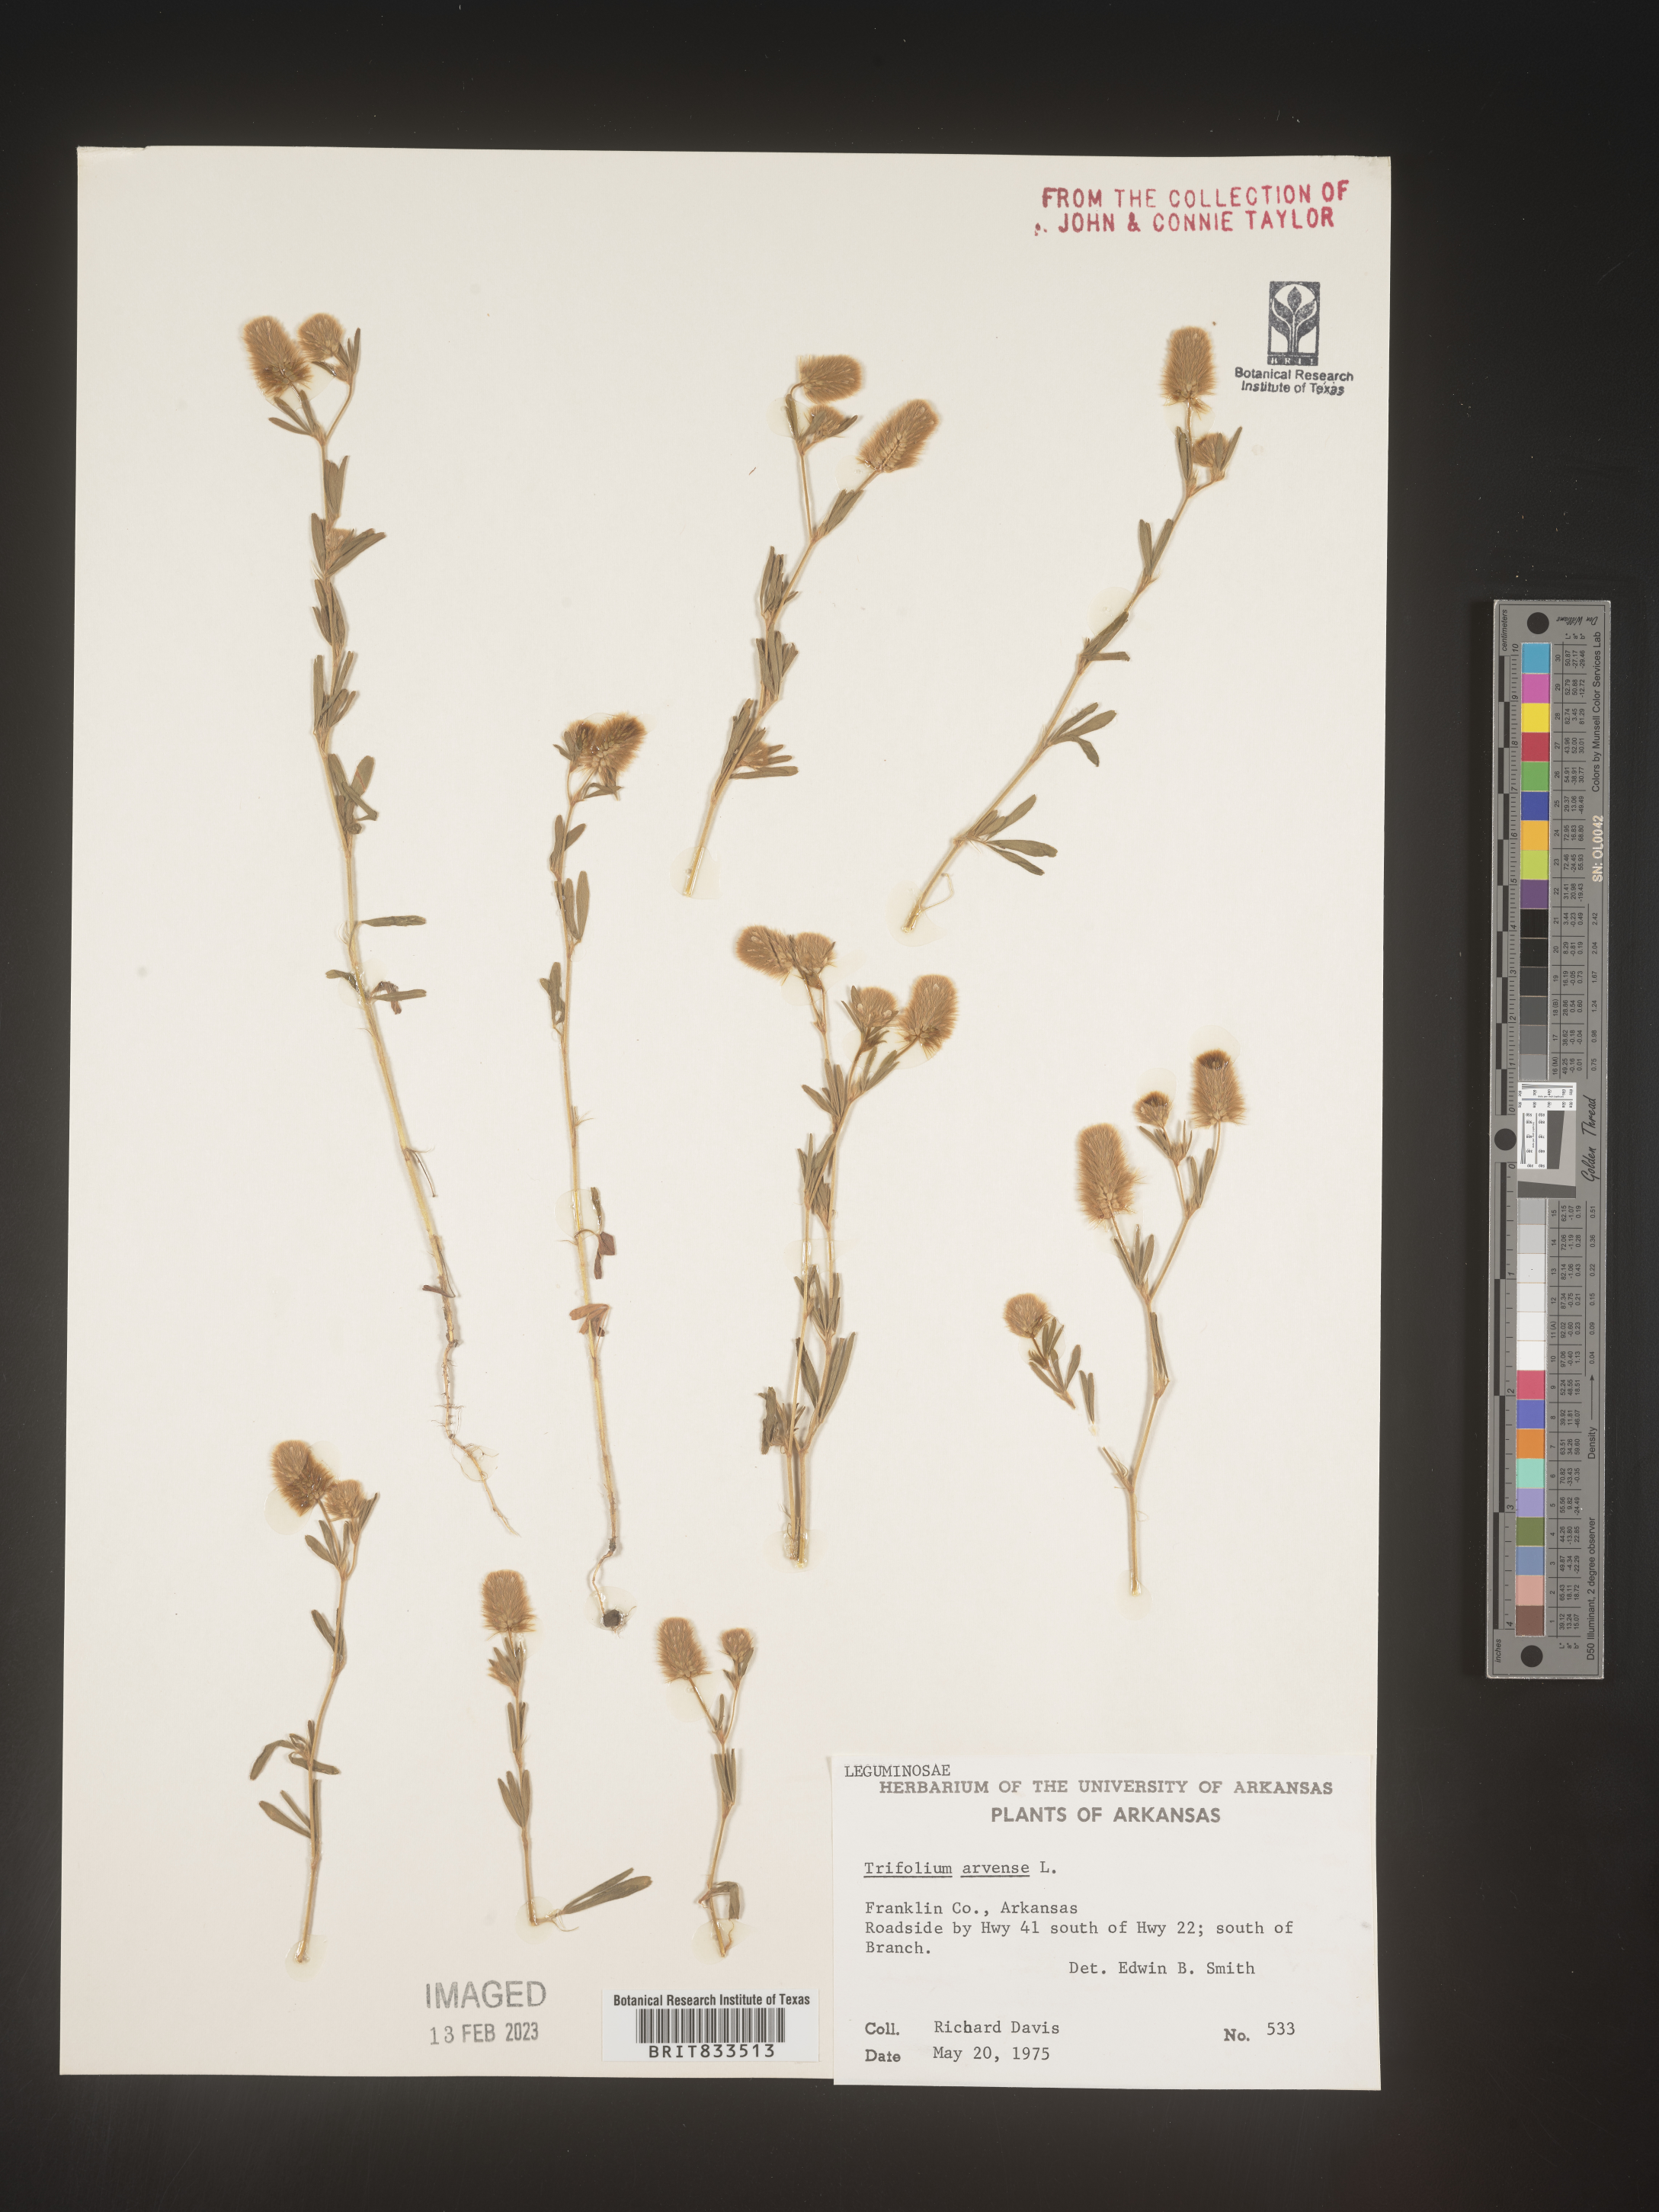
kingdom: Plantae
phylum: Tracheophyta
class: Magnoliopsida
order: Fabales
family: Fabaceae
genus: Trifolium
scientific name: Trifolium arvense
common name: Hare's-foot clover
